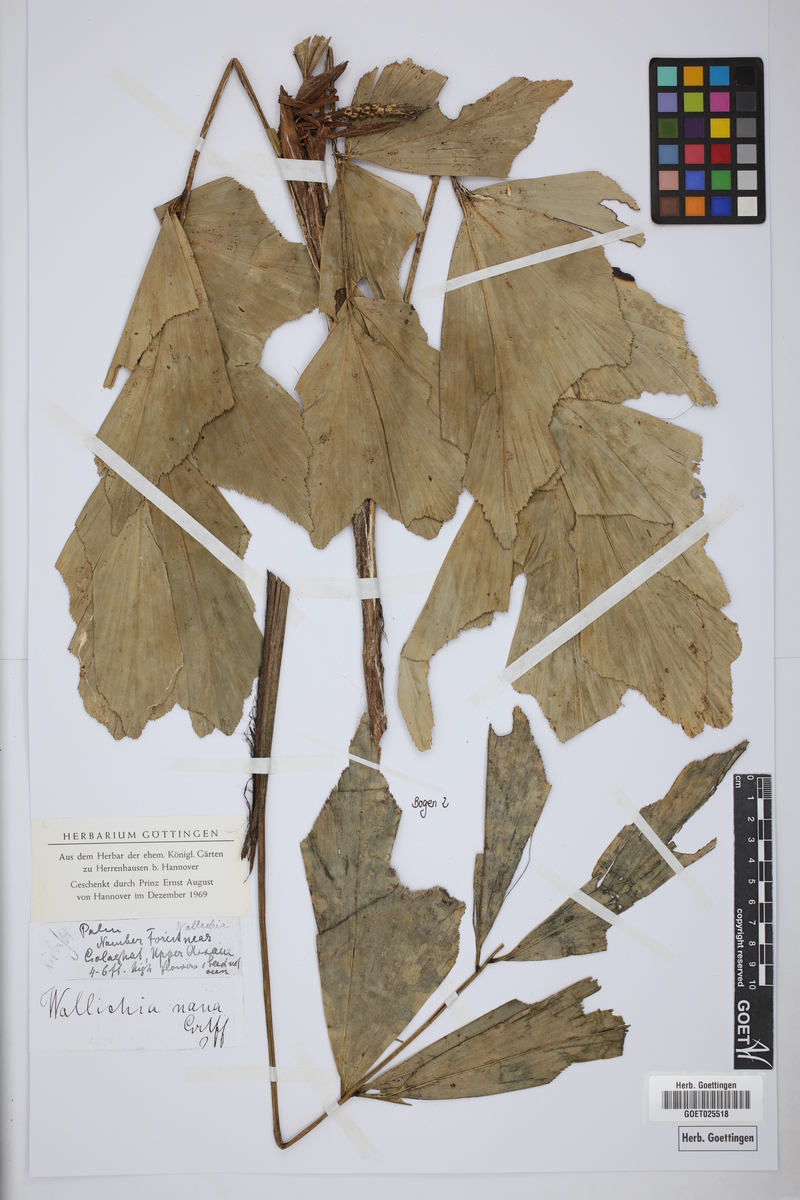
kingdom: Plantae
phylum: Tracheophyta
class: Liliopsida
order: Arecales
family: Arecaceae
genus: Wallichia
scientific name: Wallichia nana
